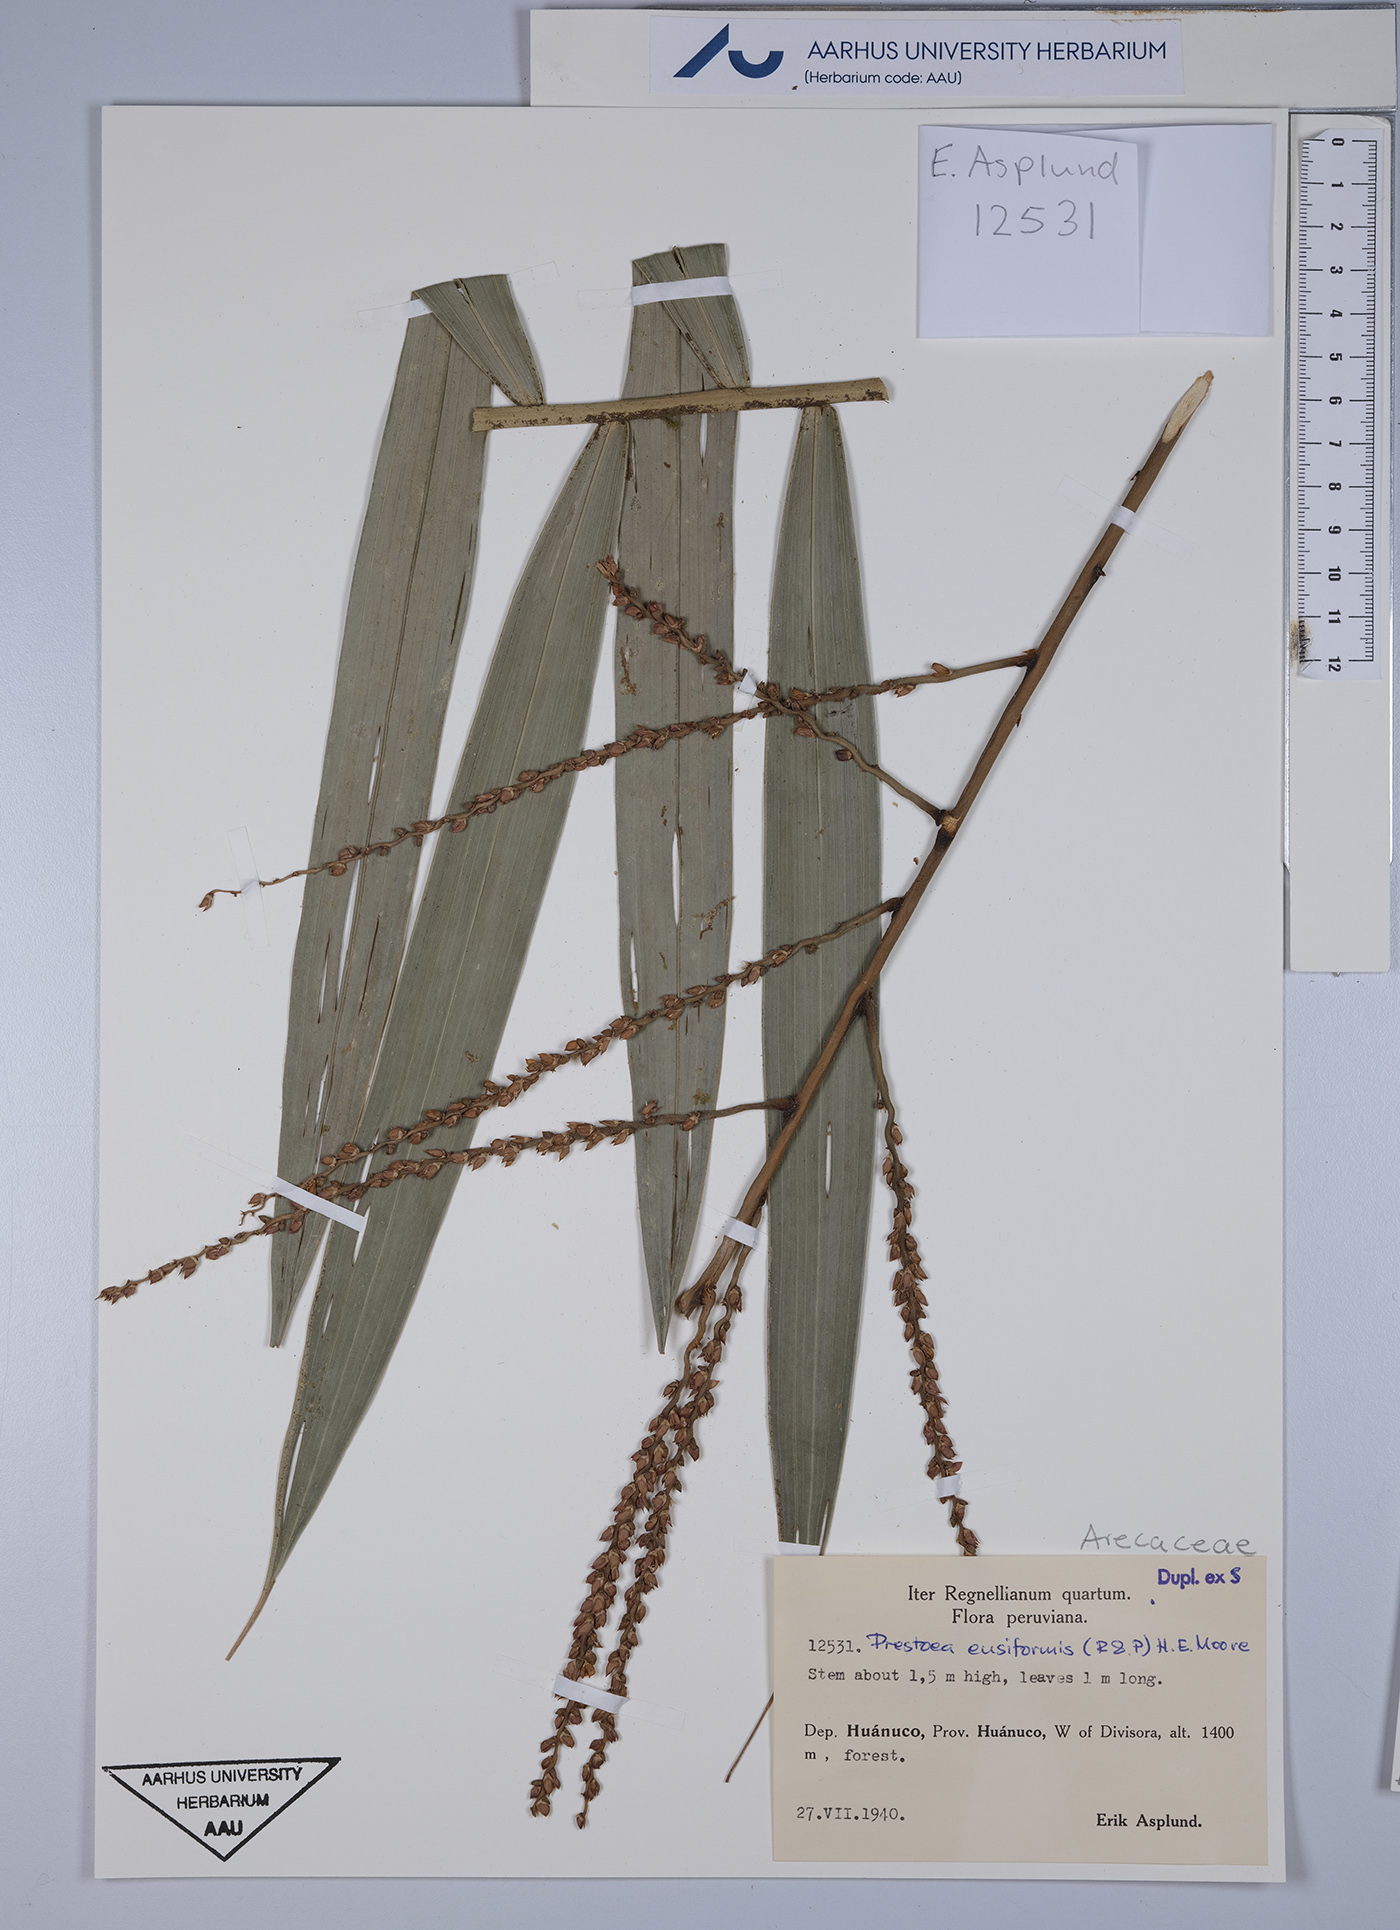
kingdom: Plantae
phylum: Tracheophyta
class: Liliopsida
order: Arecales
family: Arecaceae
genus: Prestoea
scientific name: Prestoea ensiformis
